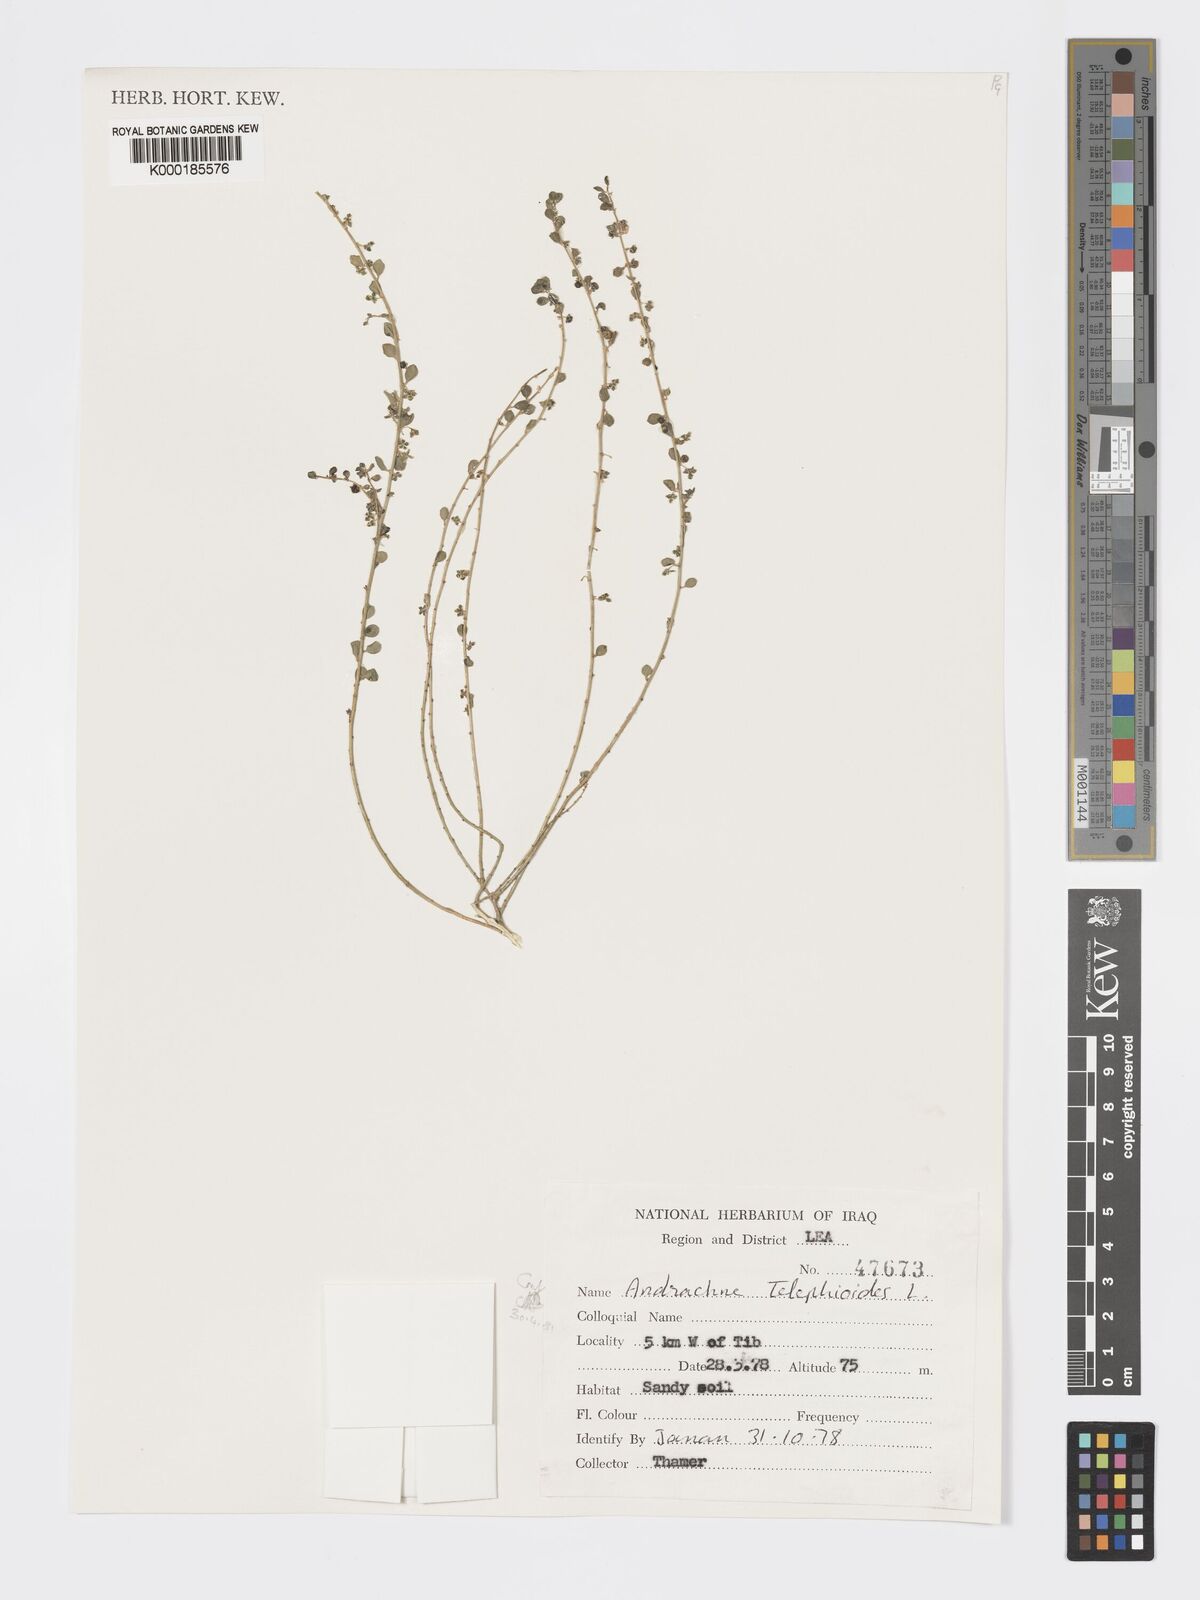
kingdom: Plantae
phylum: Tracheophyta
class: Magnoliopsida
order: Malpighiales
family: Phyllanthaceae
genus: Andrachne
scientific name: Andrachne telephioides
